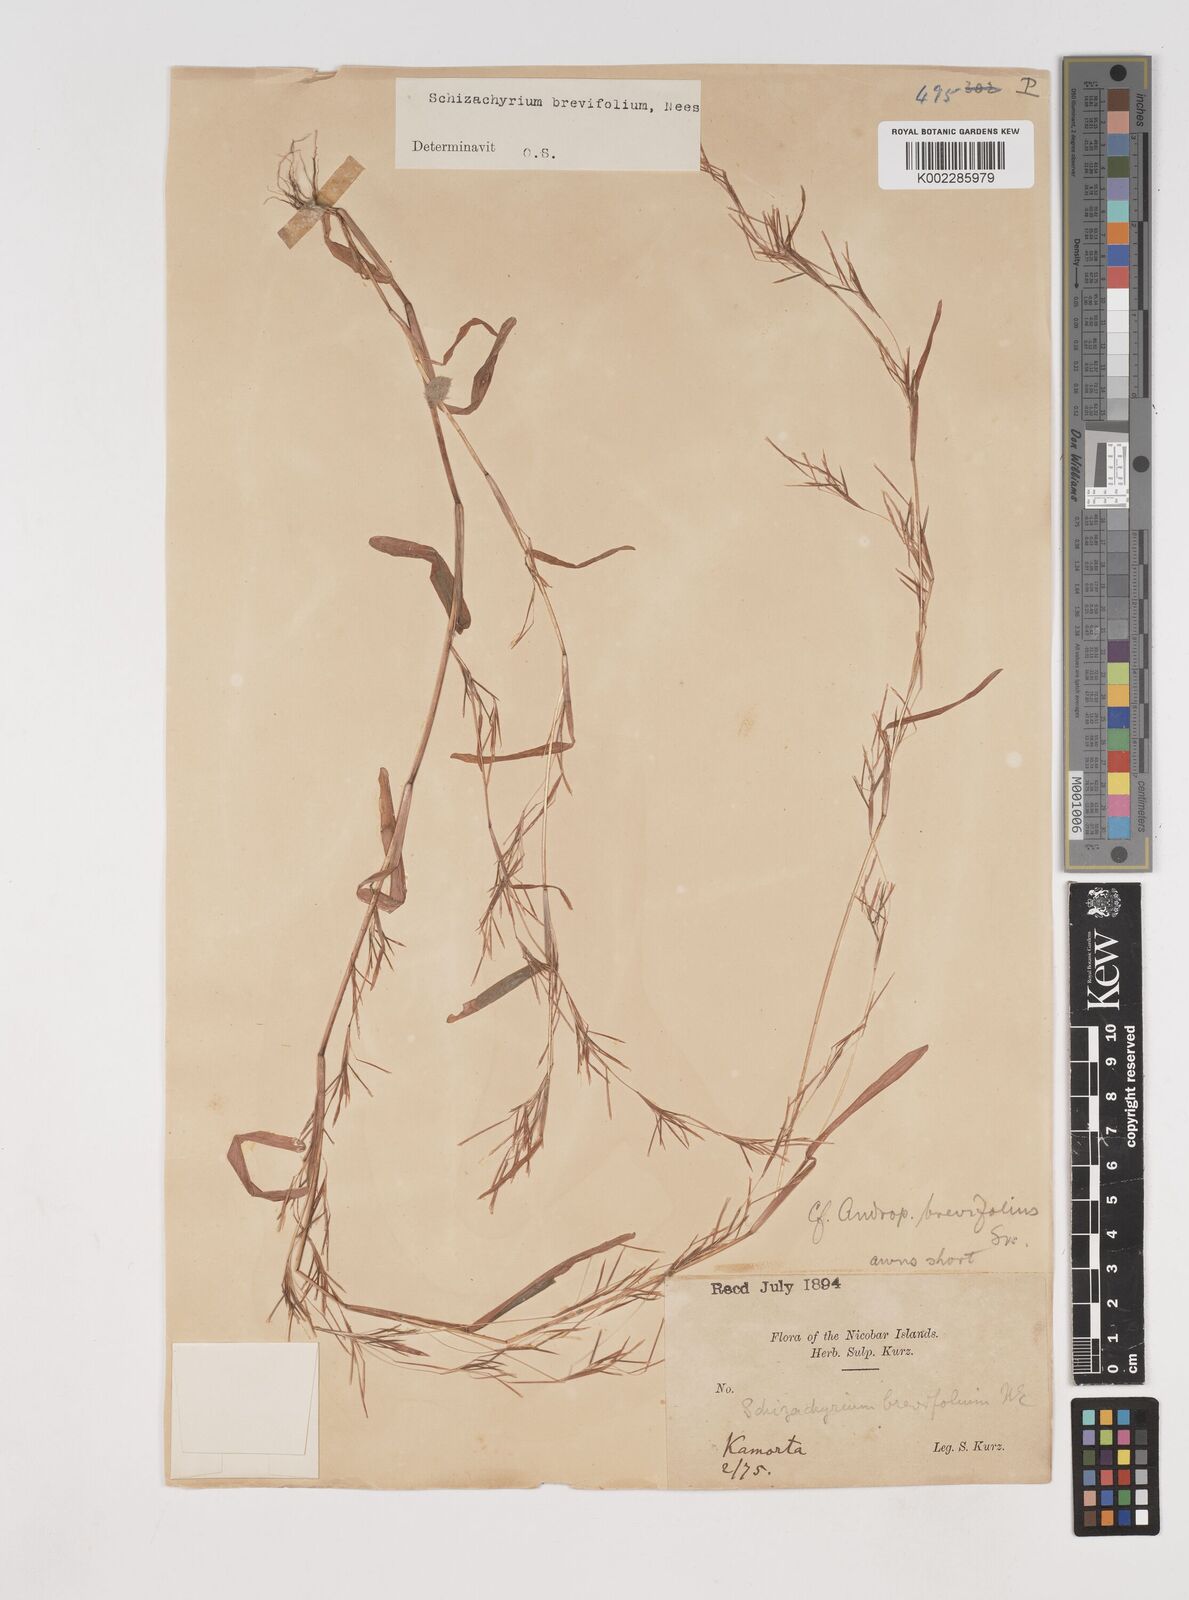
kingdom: Plantae
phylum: Tracheophyta
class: Liliopsida
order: Poales
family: Poaceae
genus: Schizachyrium
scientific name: Schizachyrium brevifolium
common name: Serillo dulce
